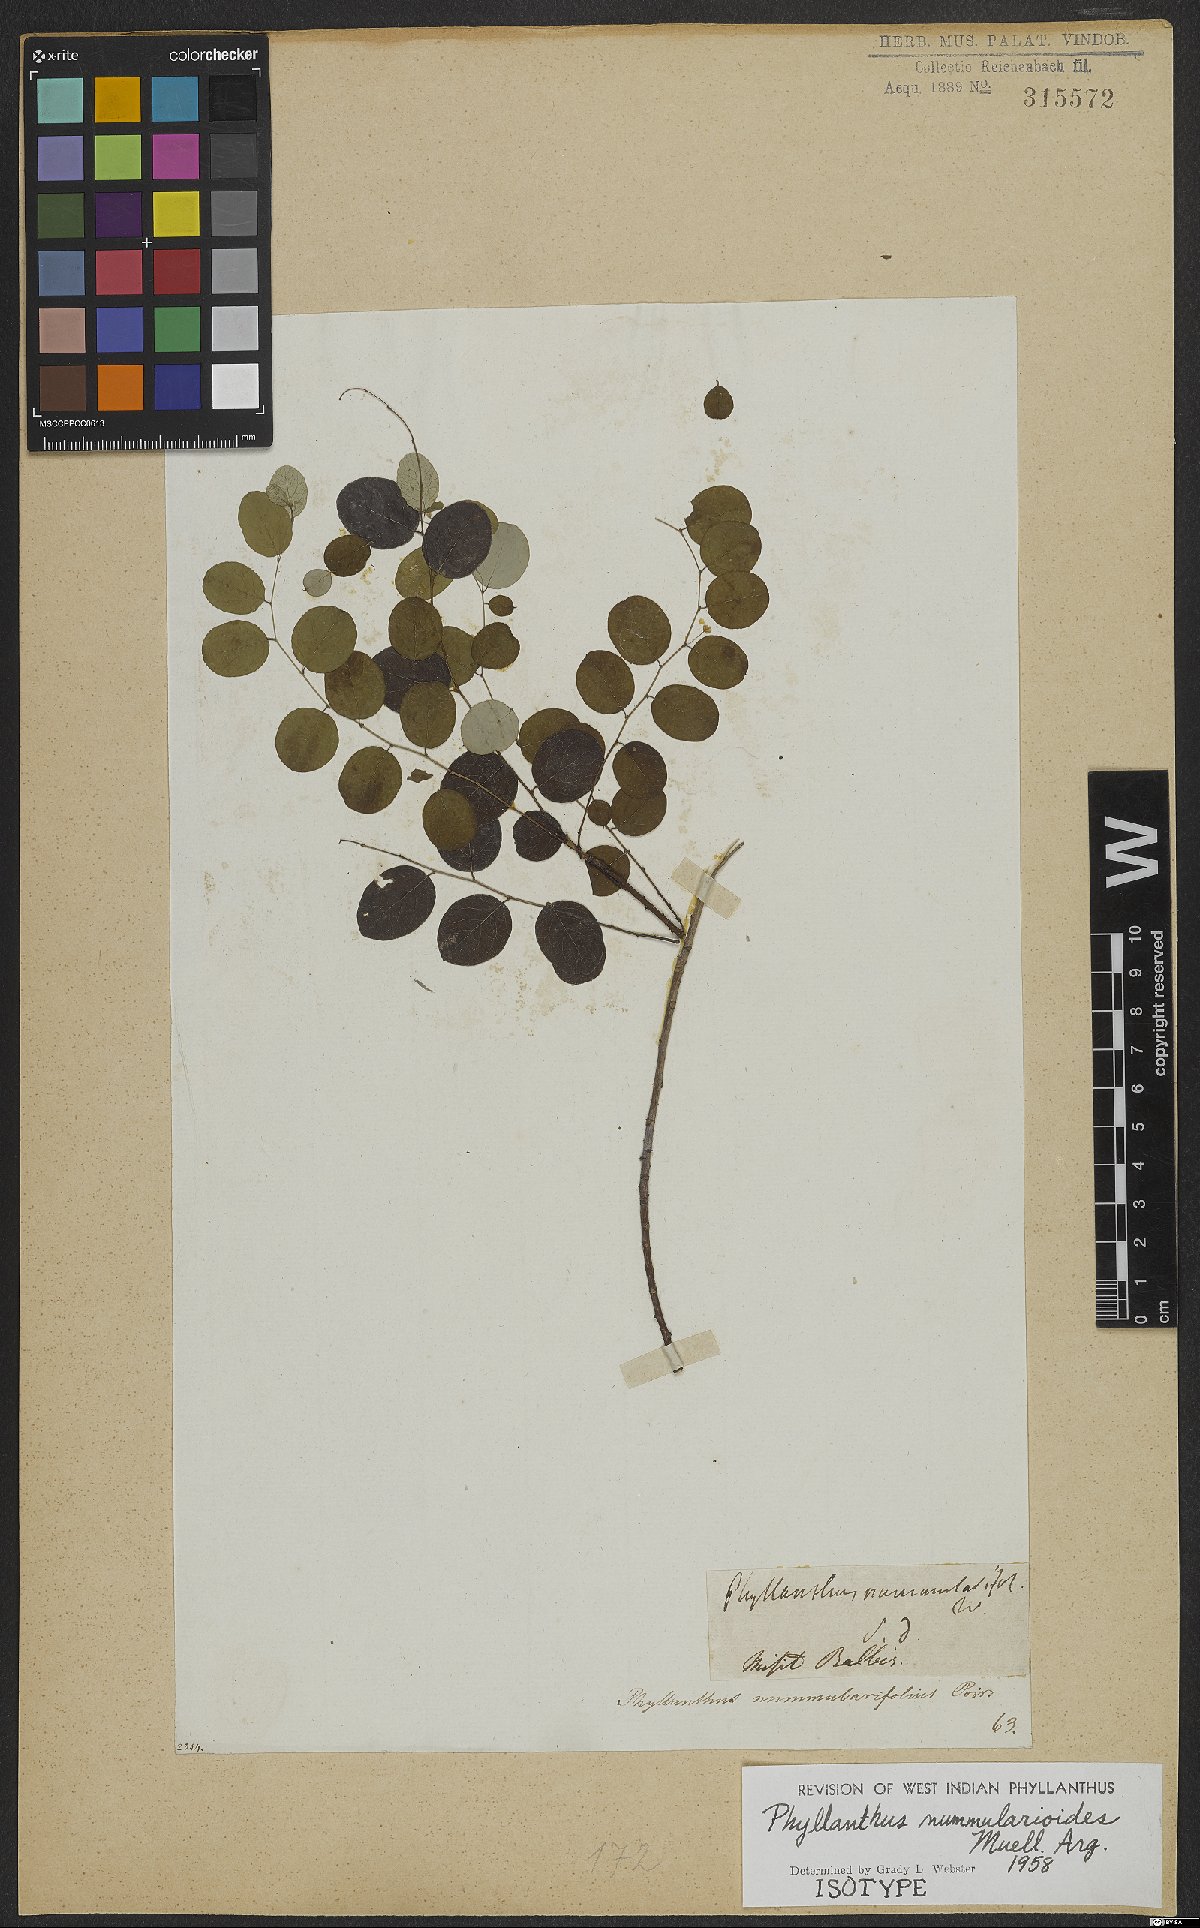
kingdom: Plantae
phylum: Tracheophyta
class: Magnoliopsida
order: Malpighiales
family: Phyllanthaceae
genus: Phyllanthus
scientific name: Phyllanthus nummularioides
